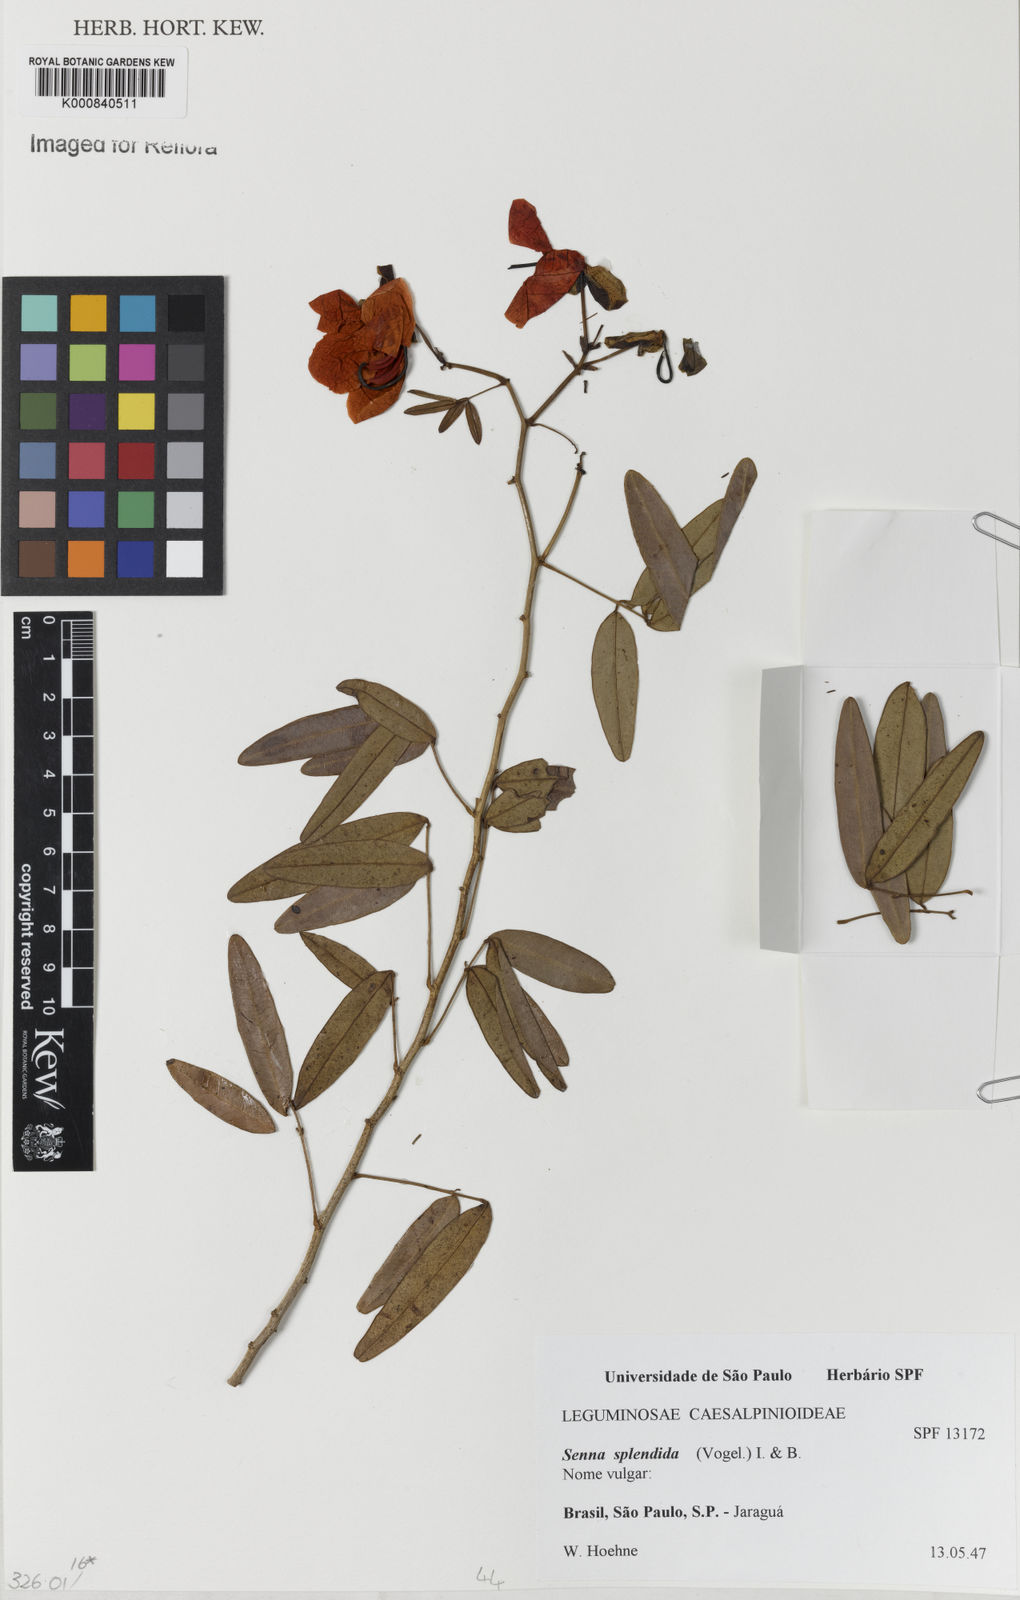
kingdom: Plantae
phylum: Tracheophyta
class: Magnoliopsida
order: Fabales
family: Fabaceae
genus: Senna
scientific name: Senna splendida
